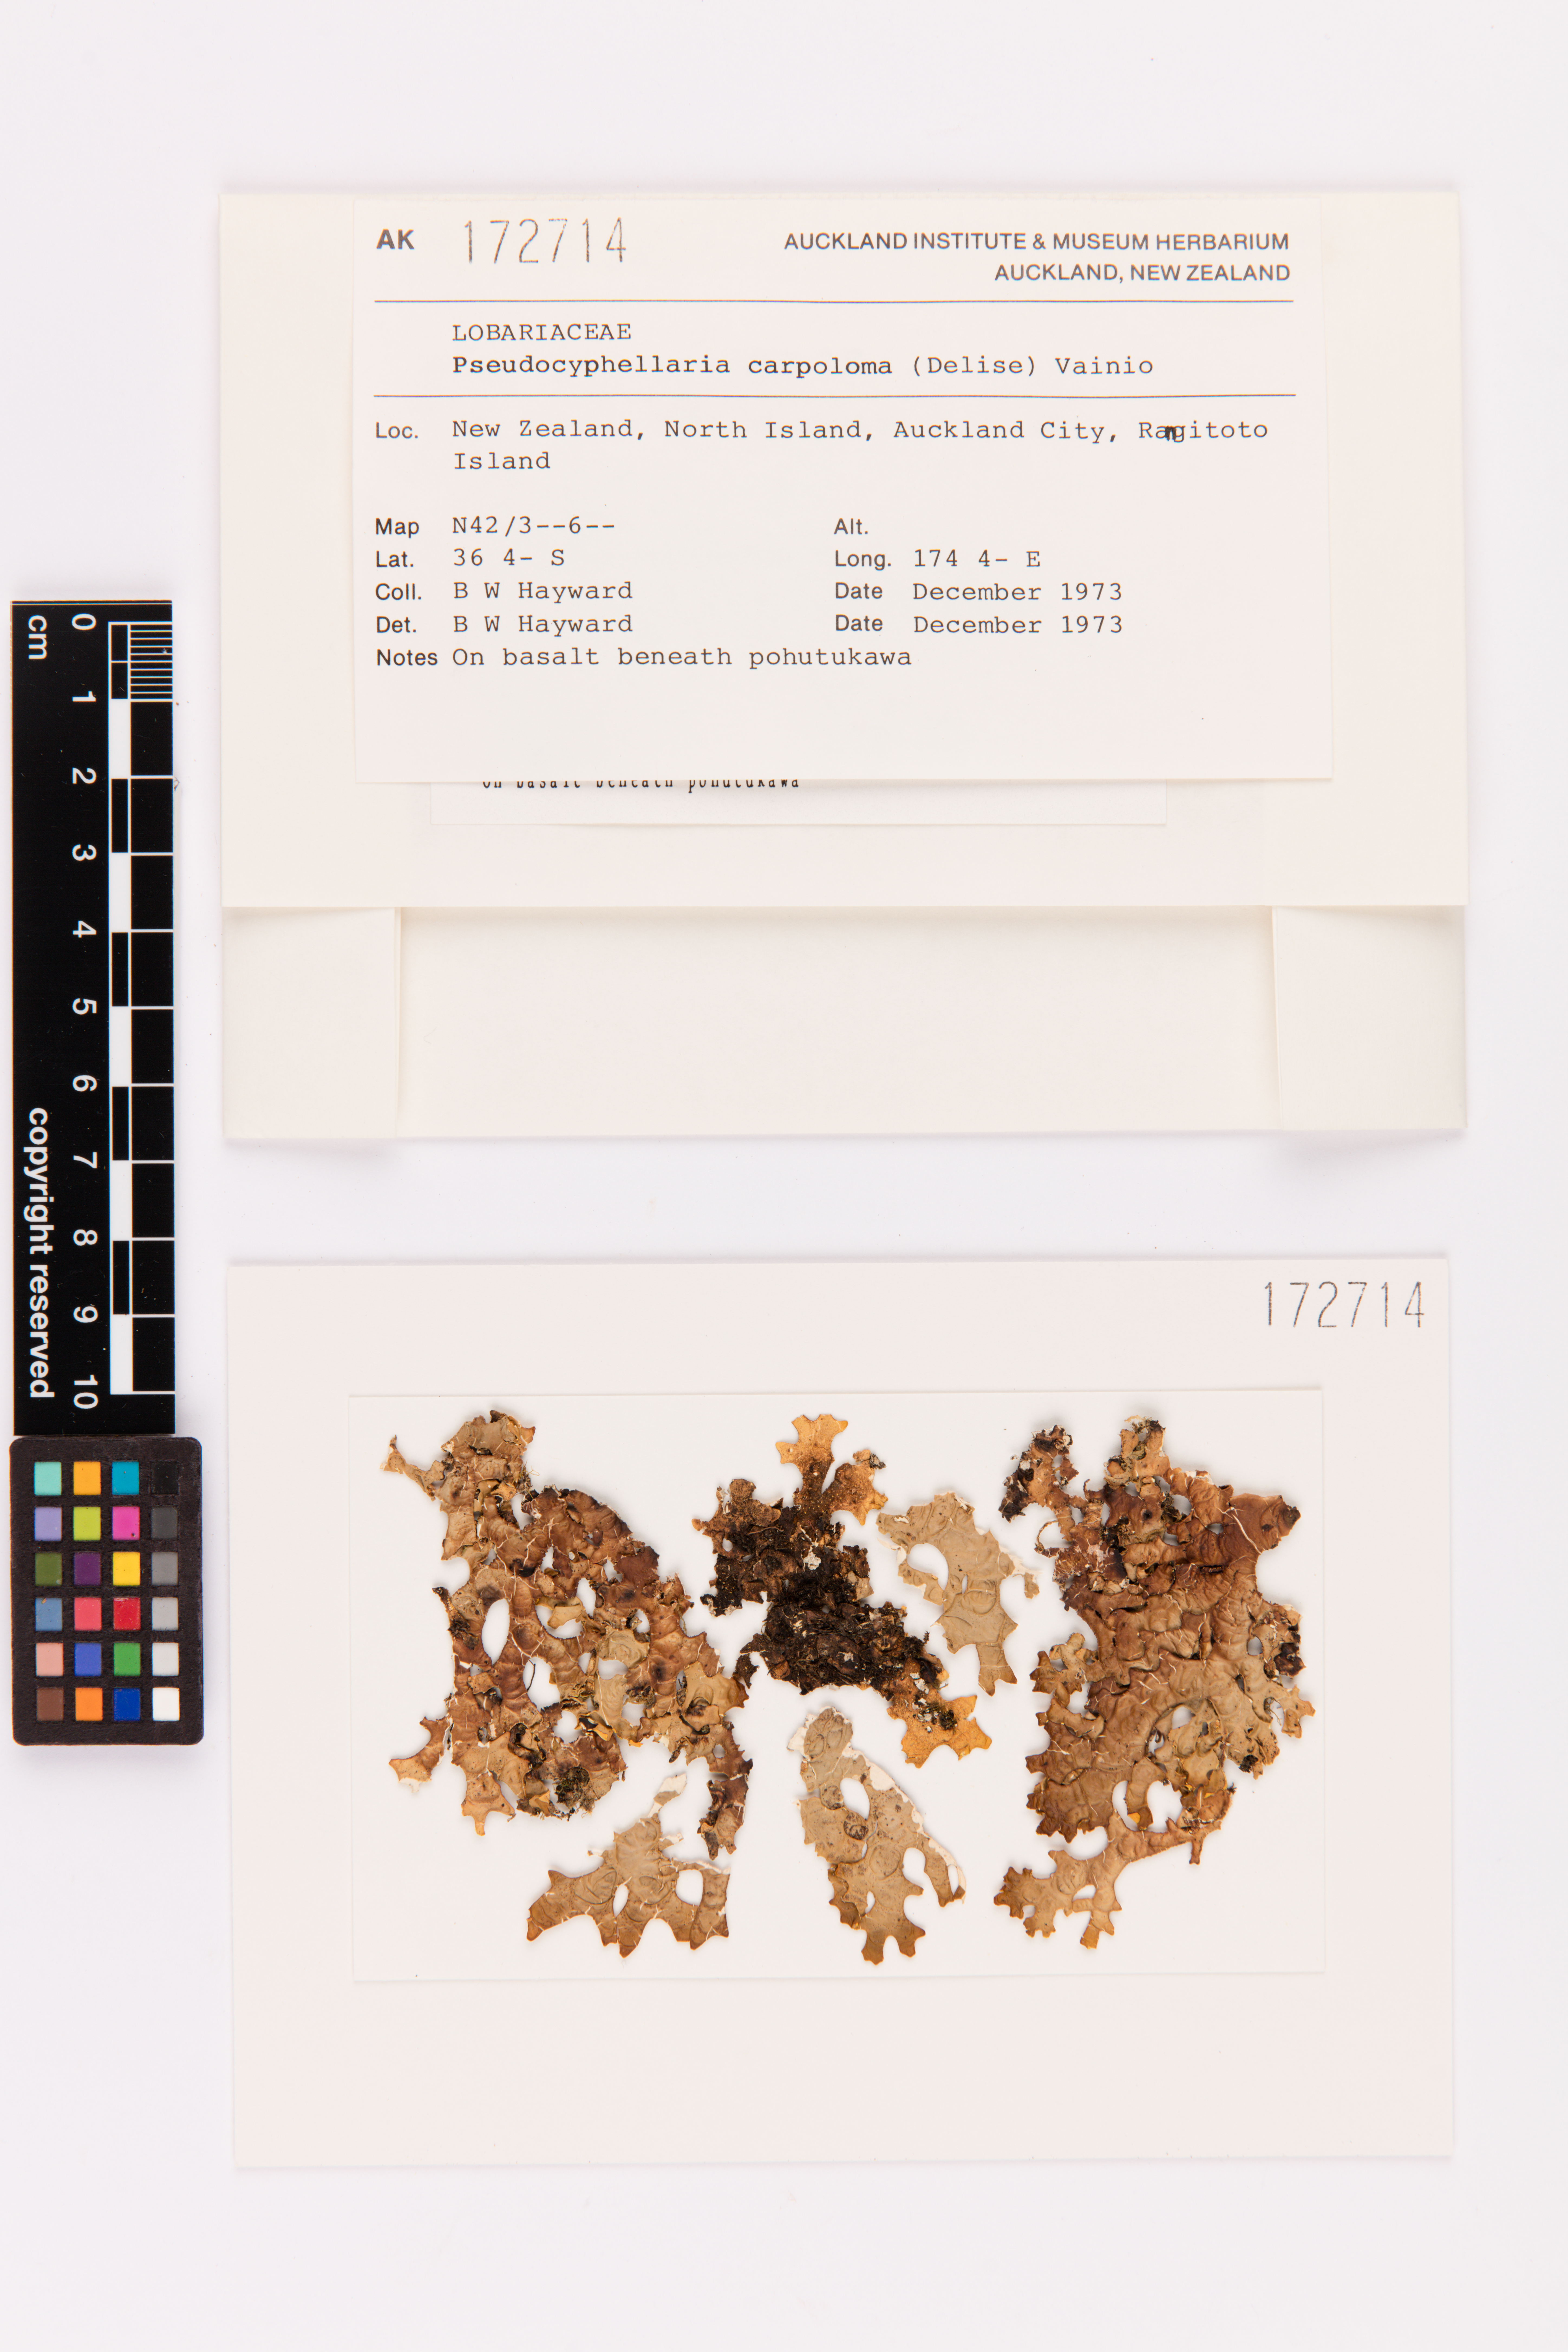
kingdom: Fungi
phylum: Ascomycota
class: Lecanoromycetes
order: Peltigerales
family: Lobariaceae
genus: Pseudocyphellaria
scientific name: Pseudocyphellaria carpoloma
